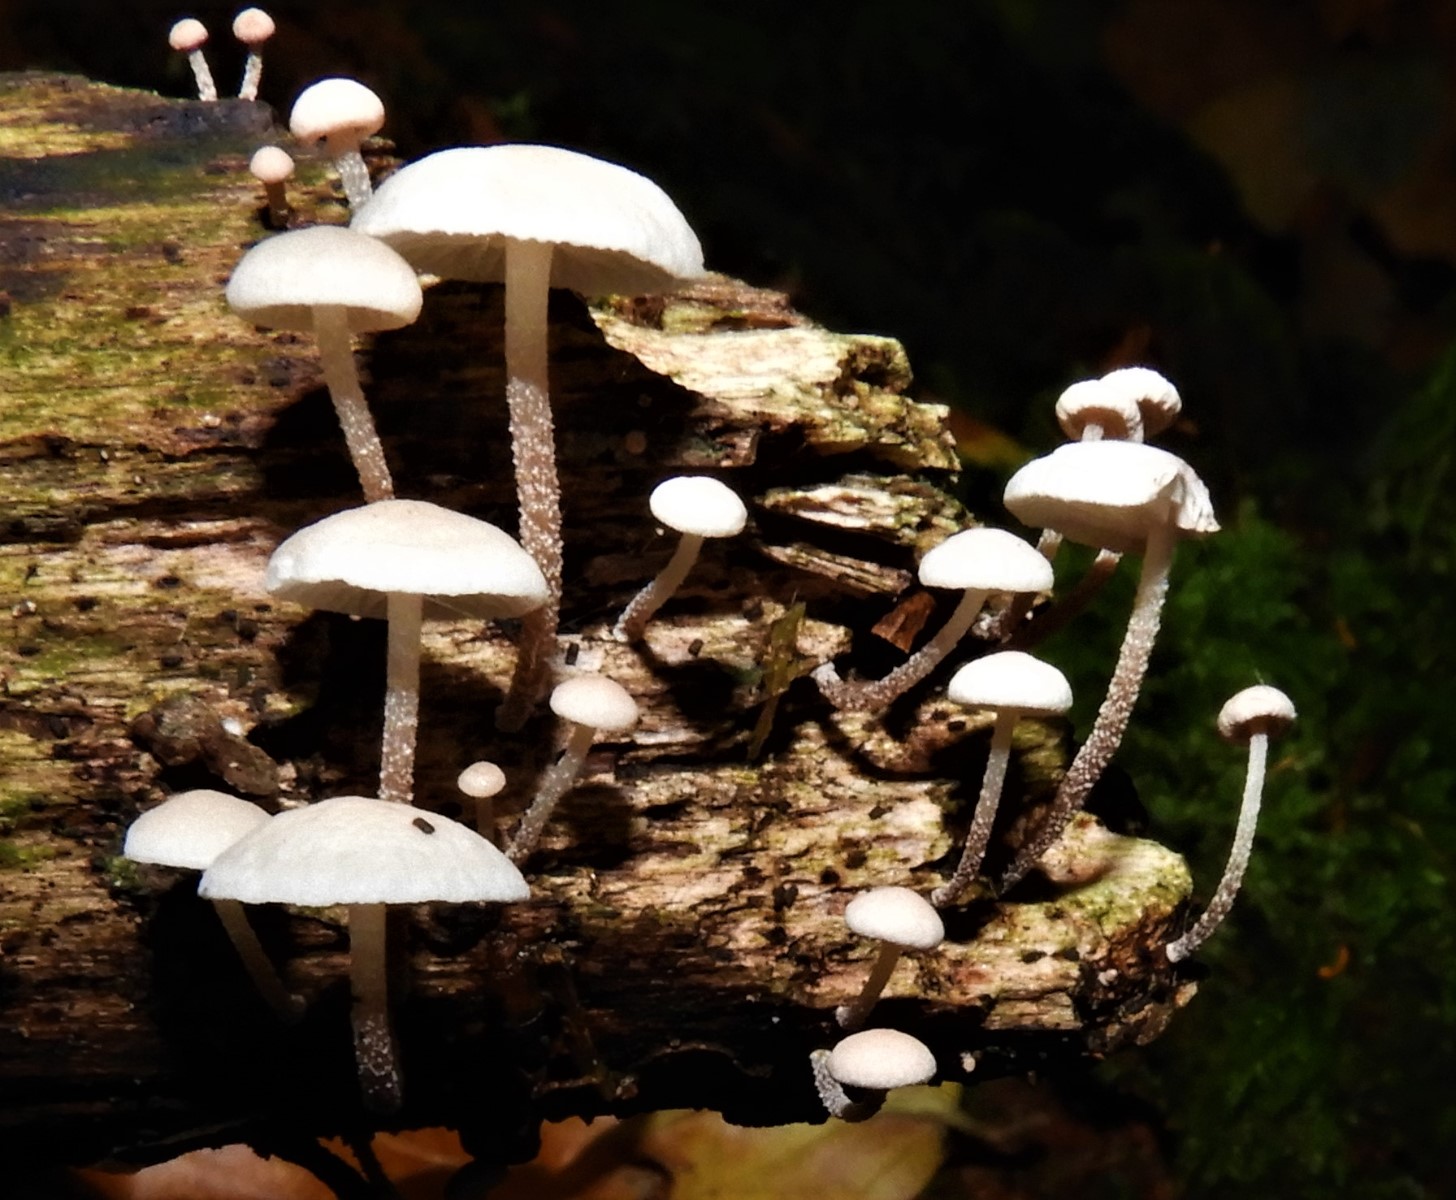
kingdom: Fungi
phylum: Basidiomycota
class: Agaricomycetes
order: Agaricales
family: Omphalotaceae
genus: Collybiopsis
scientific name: Collybiopsis ramealis
